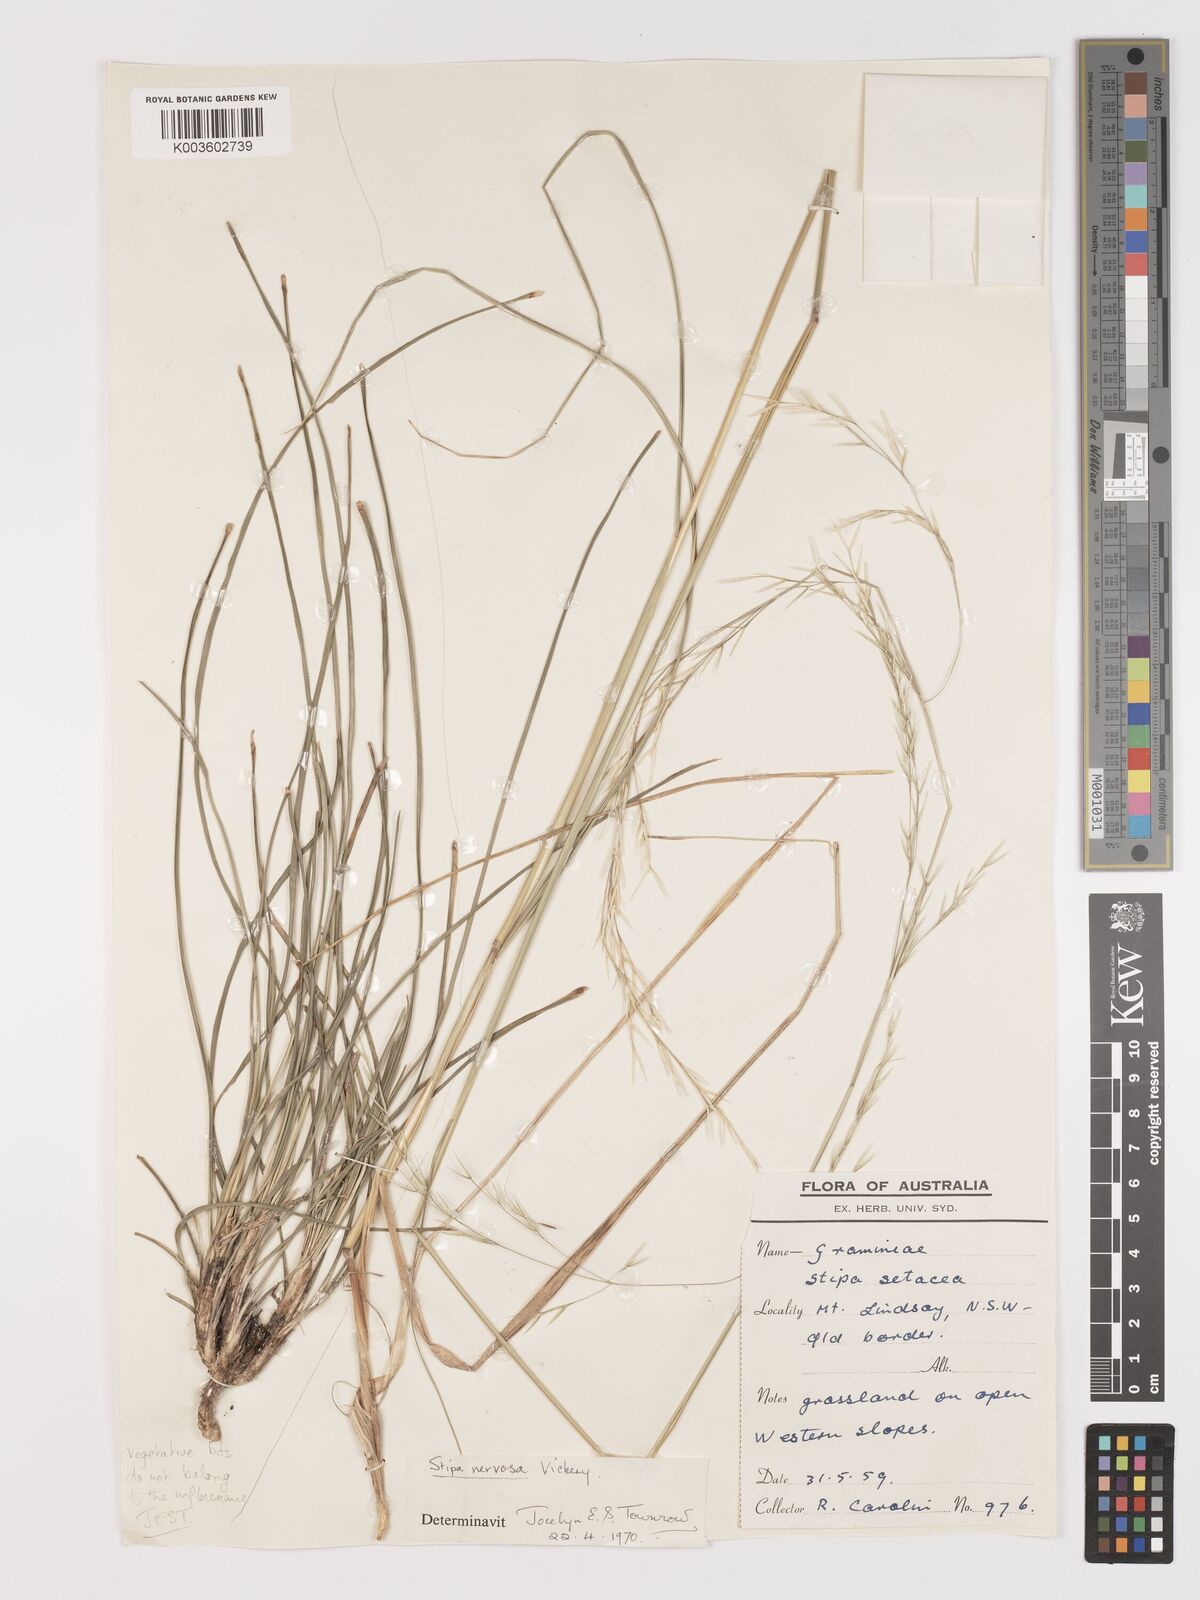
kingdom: Plantae
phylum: Tracheophyta
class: Liliopsida
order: Poales
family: Poaceae
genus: Austrostipa
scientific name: Austrostipa rudis
